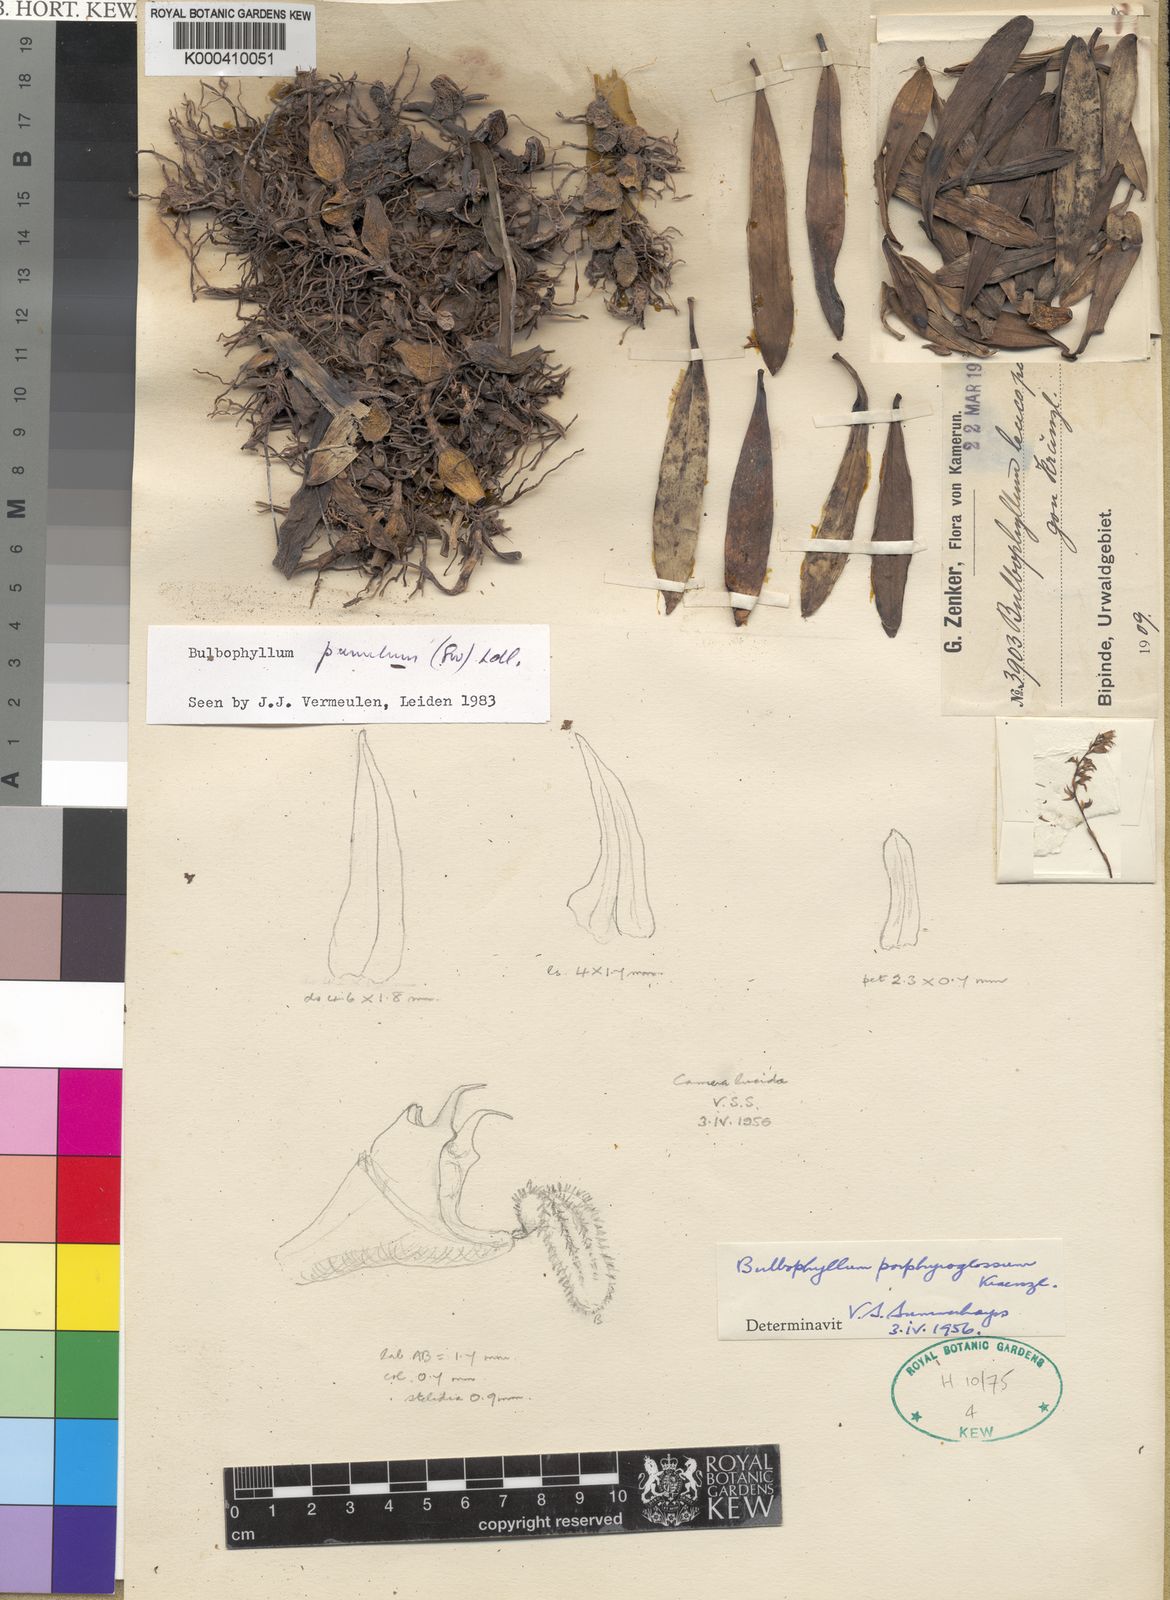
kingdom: Plantae
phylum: Tracheophyta
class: Liliopsida
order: Asparagales
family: Orchidaceae
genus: Bulbophyllum
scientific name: Bulbophyllum pumilum
